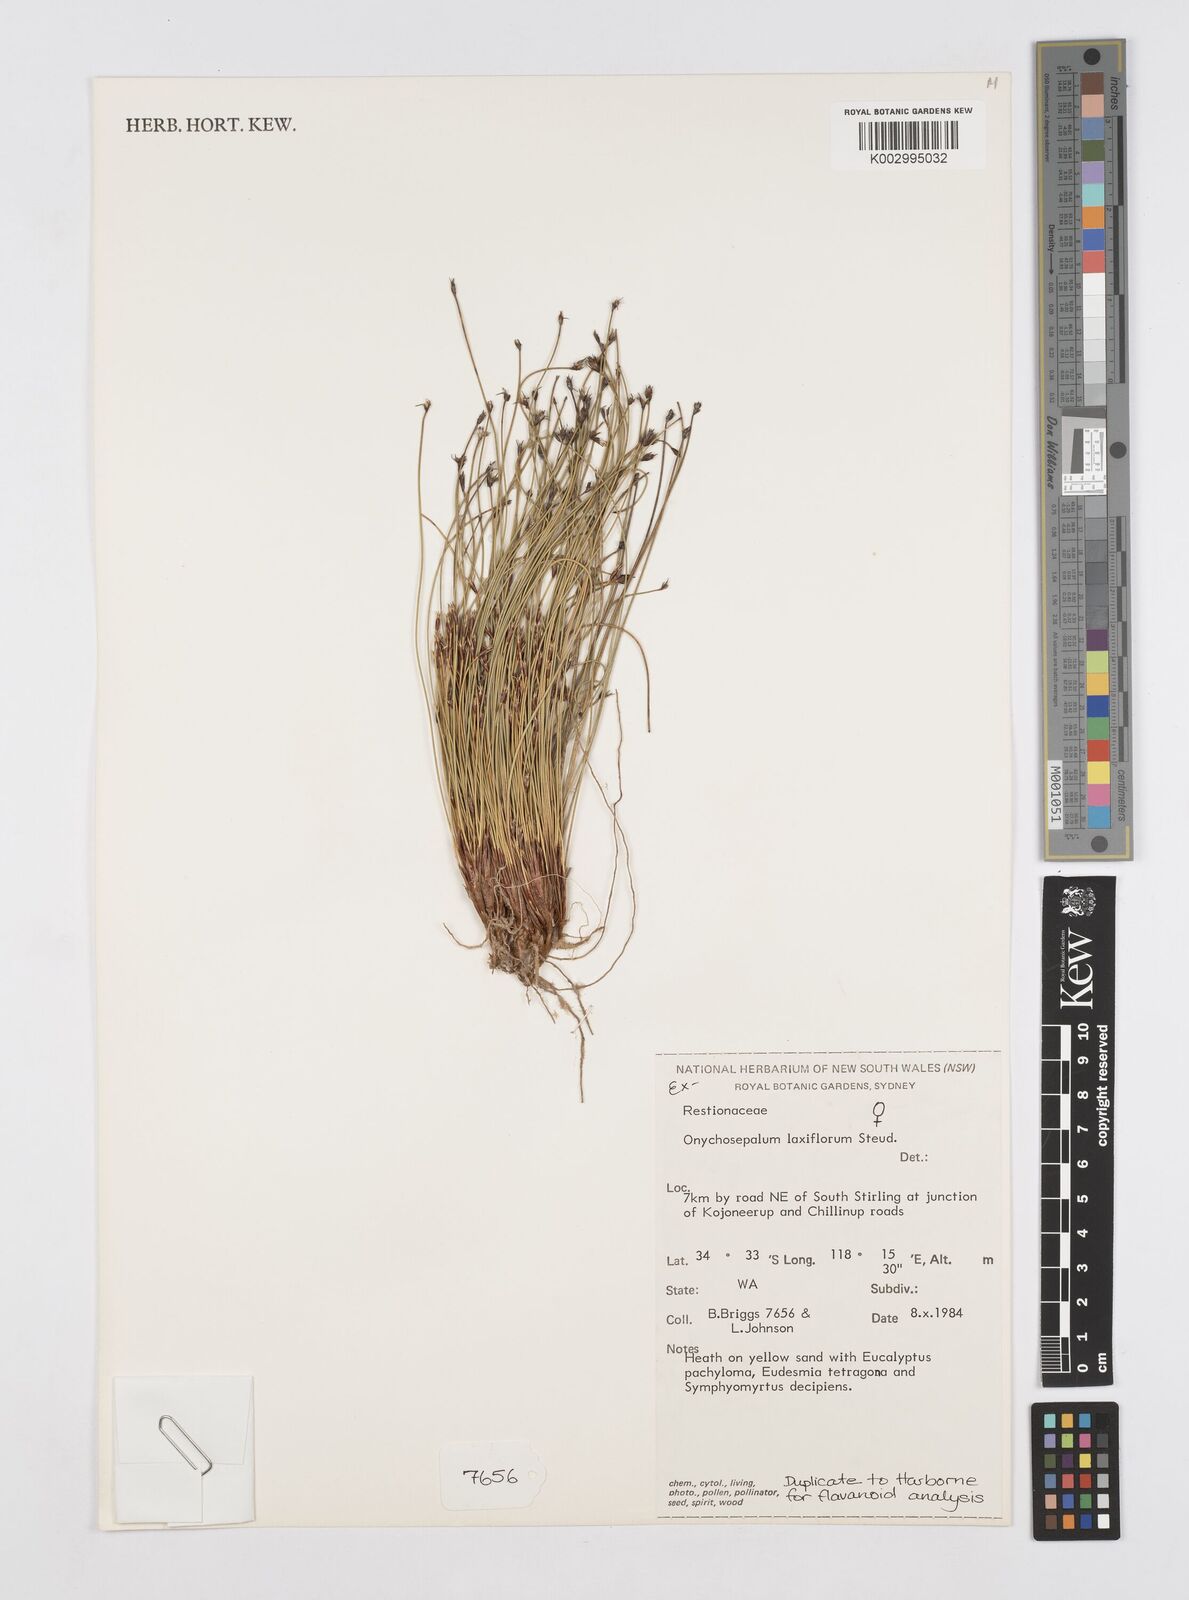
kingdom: Plantae
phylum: Tracheophyta
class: Liliopsida
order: Poales
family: Restionaceae
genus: Desmocladus
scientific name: Desmocladus laxiflorus
